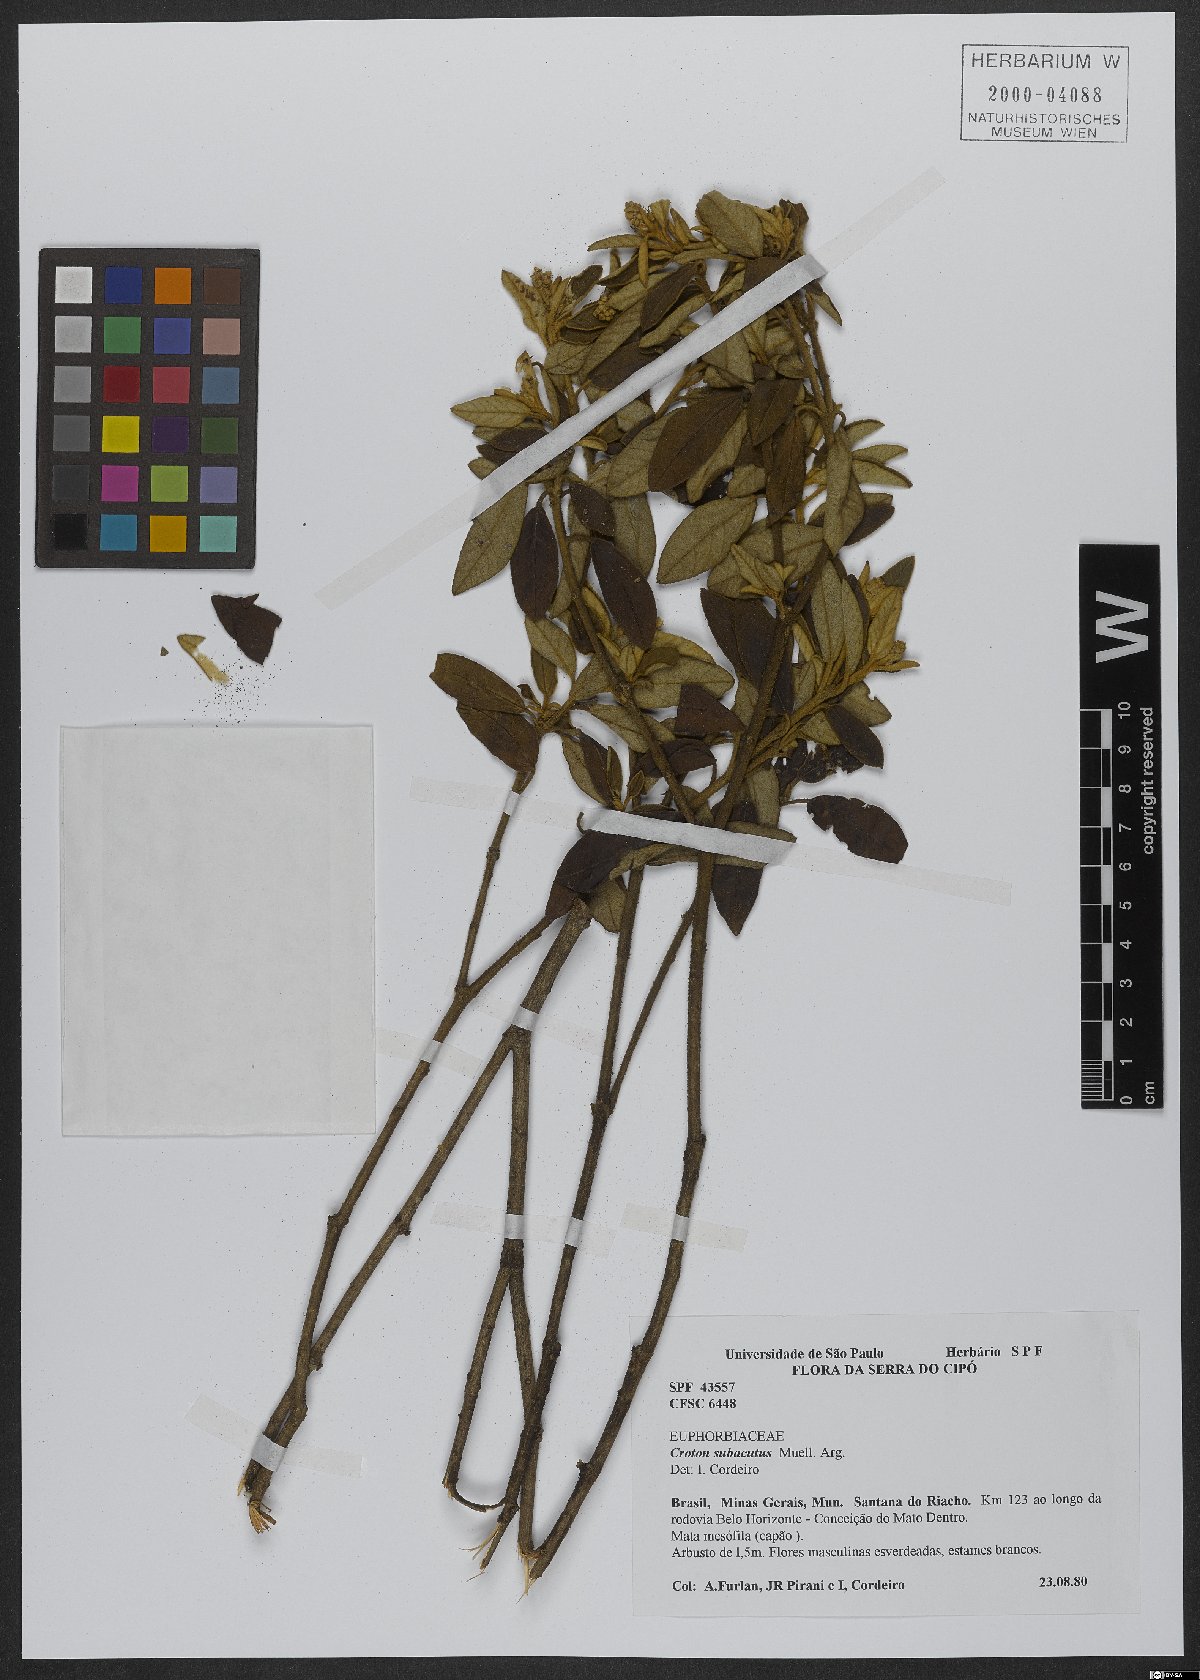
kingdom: Plantae
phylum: Tracheophyta
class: Magnoliopsida
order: Malpighiales
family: Euphorbiaceae
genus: Croton
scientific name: Croton subacutus
